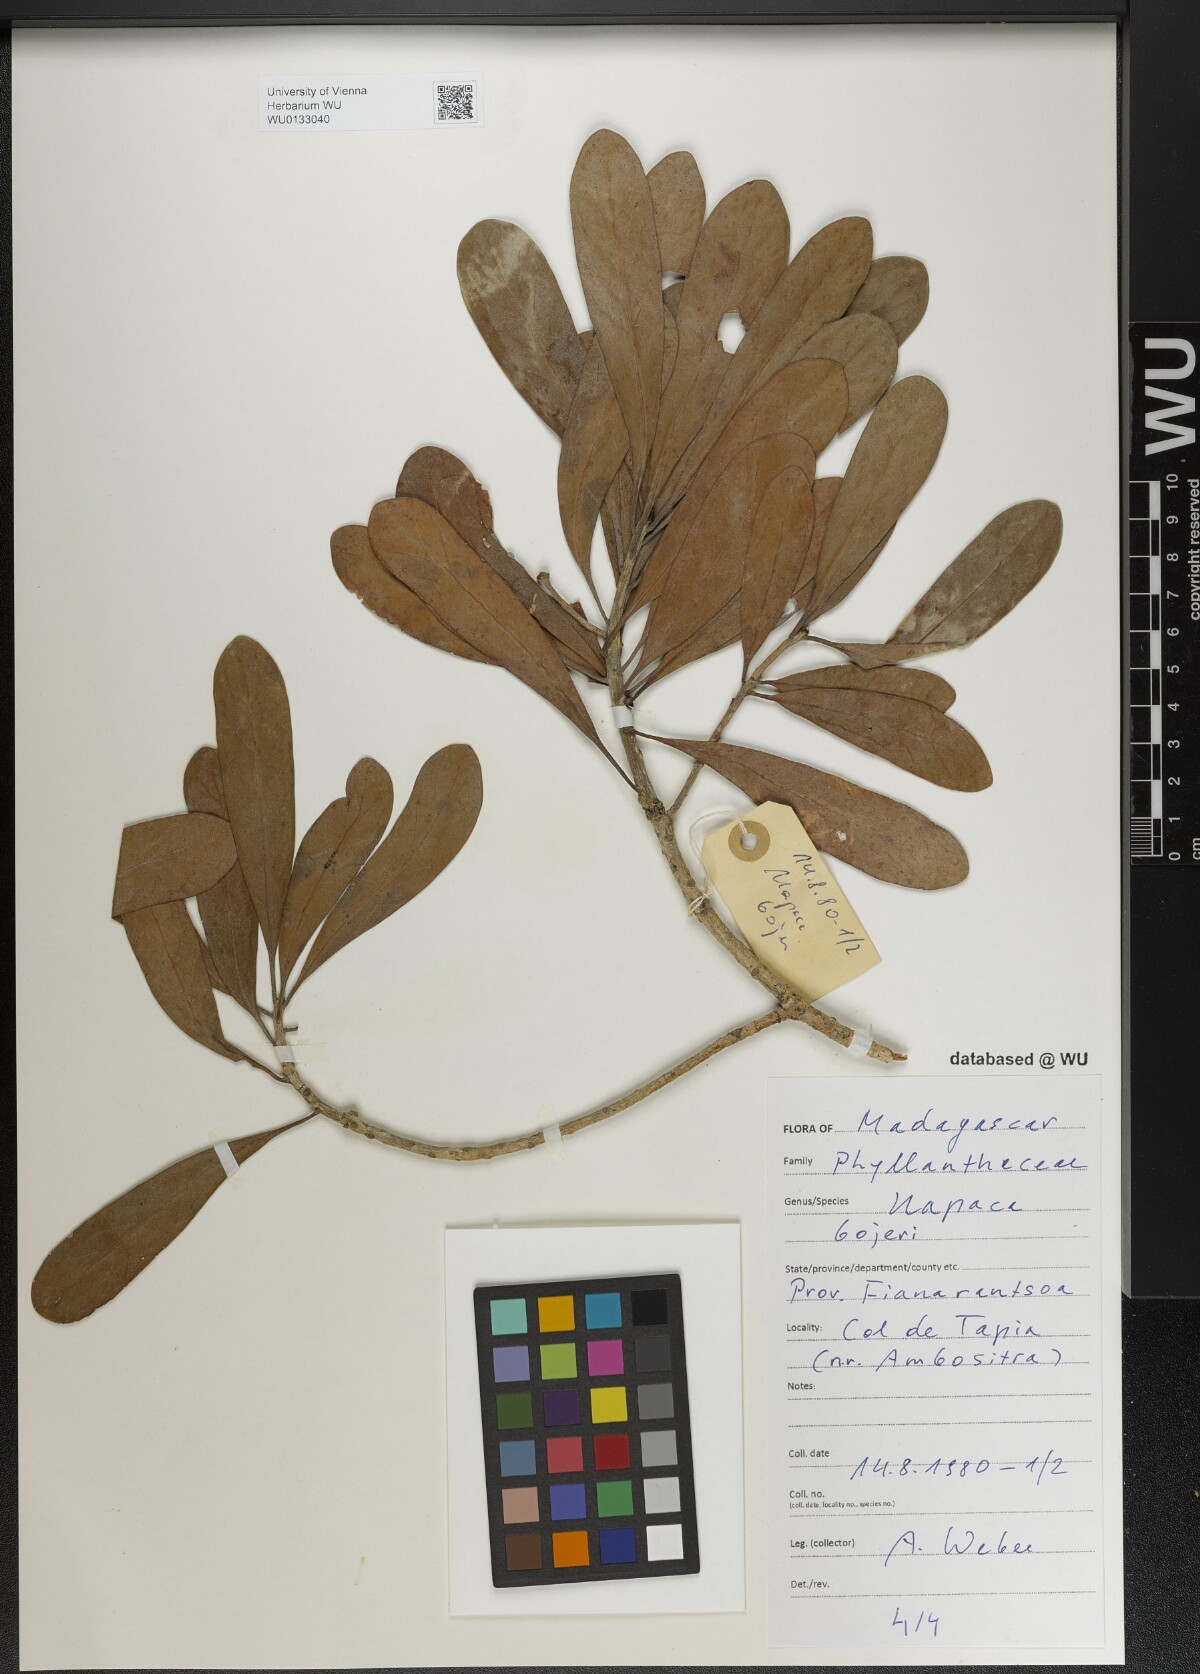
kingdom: Plantae
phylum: Tracheophyta
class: Magnoliopsida
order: Malpighiales
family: Phyllanthaceae
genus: Uapaca
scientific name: Uapaca bojeri
